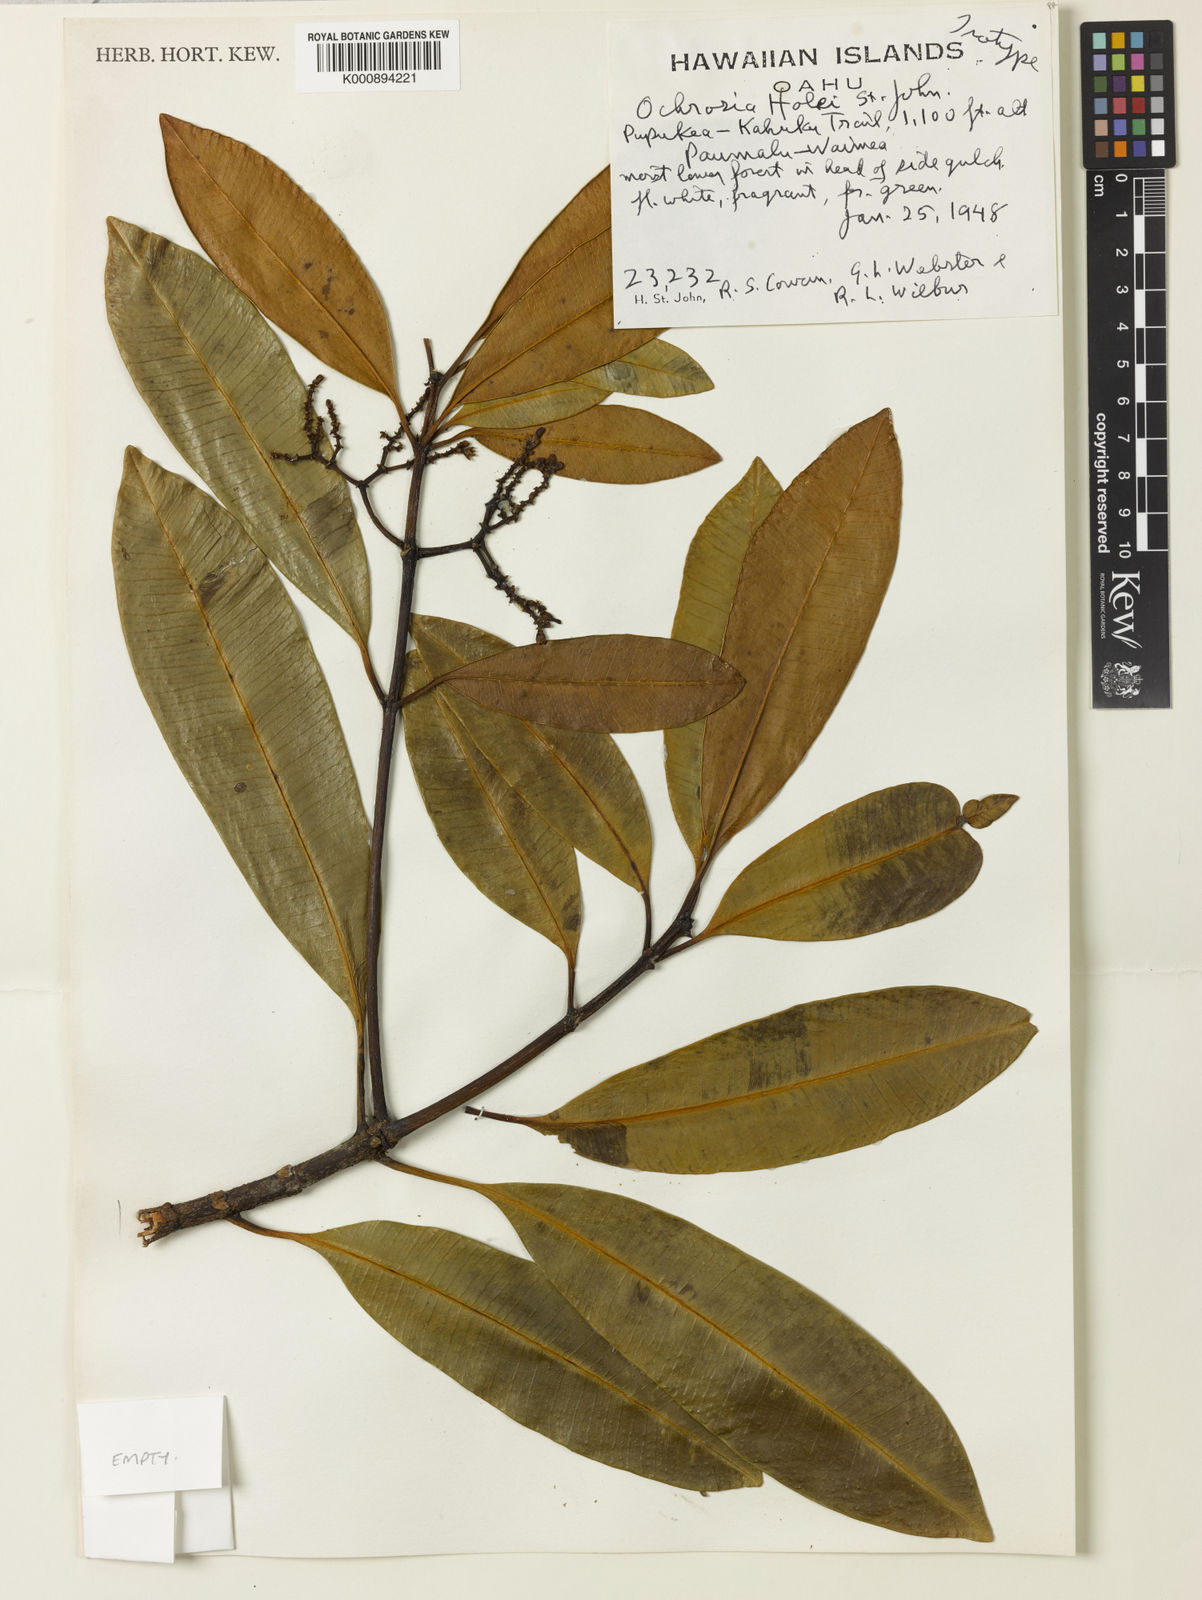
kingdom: Plantae
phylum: Tracheophyta
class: Magnoliopsida
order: Gentianales
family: Apocynaceae
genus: Ochrosia
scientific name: Ochrosia compta
